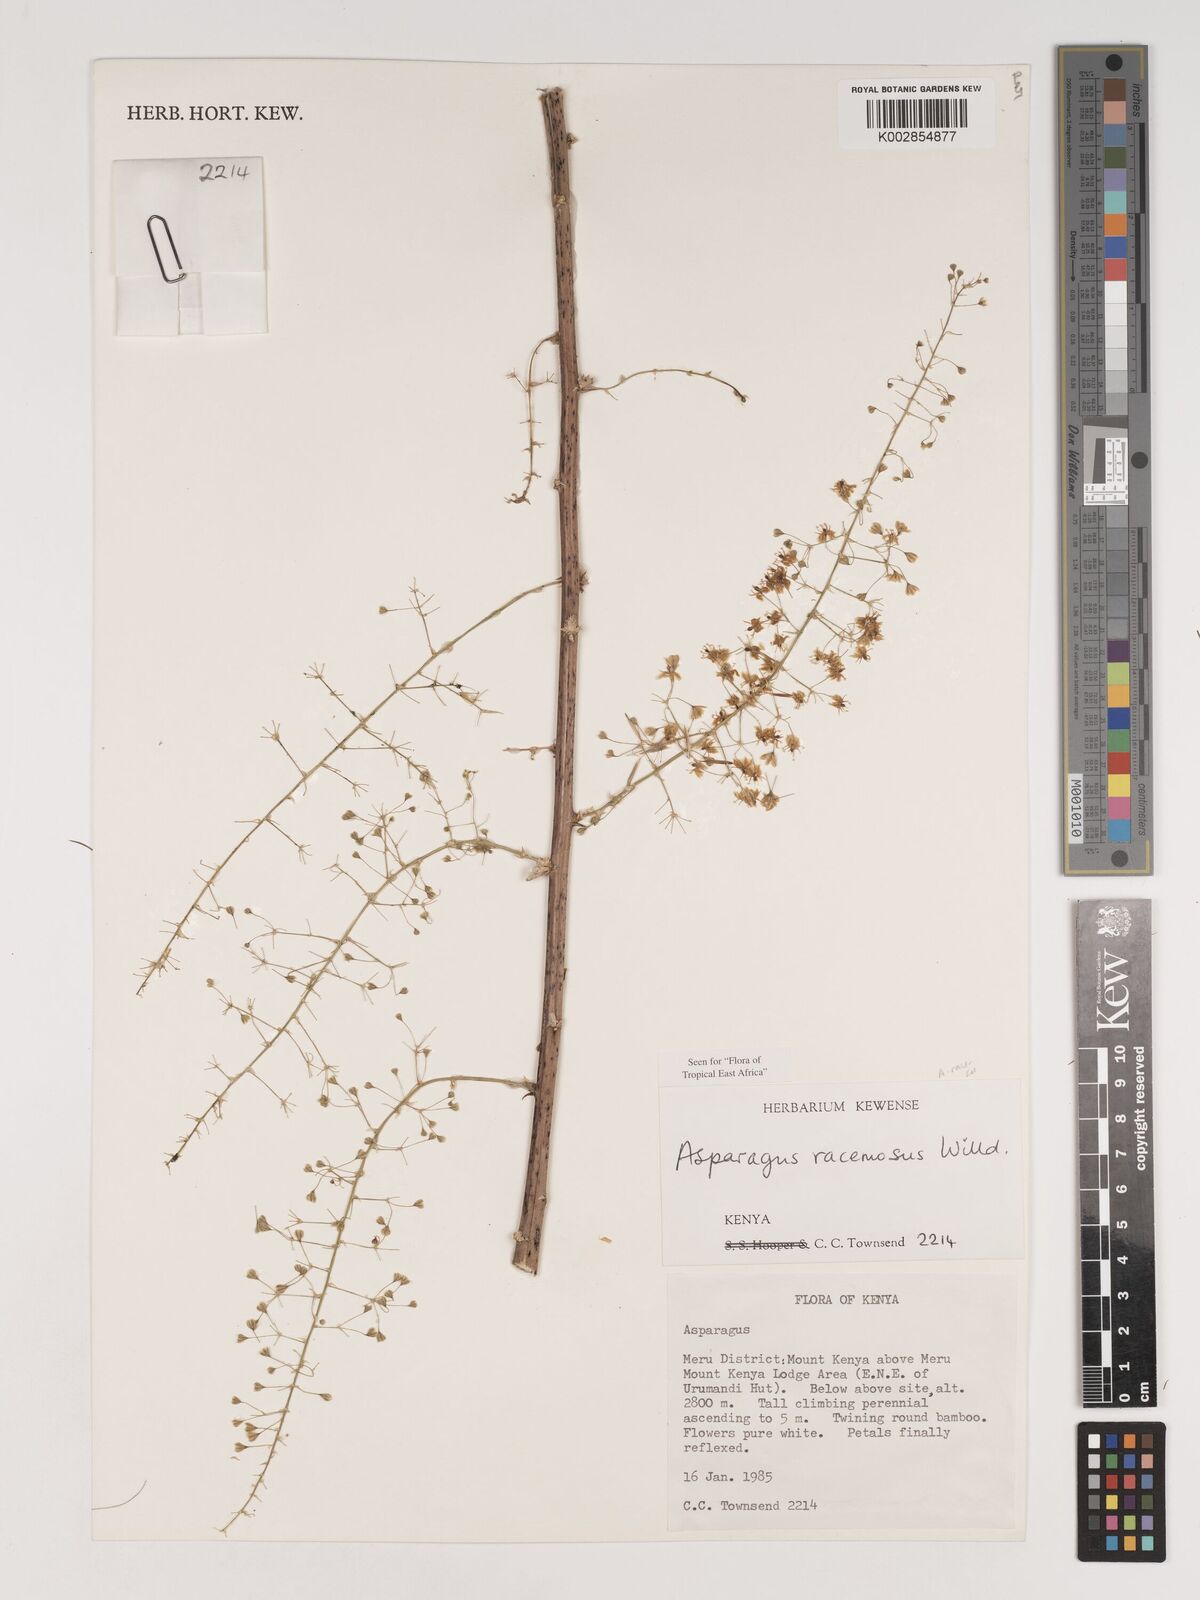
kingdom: Plantae
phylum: Tracheophyta
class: Liliopsida
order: Asparagales
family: Asparagaceae
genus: Asparagus
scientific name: Asparagus racemosus
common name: Asparagus-fern
